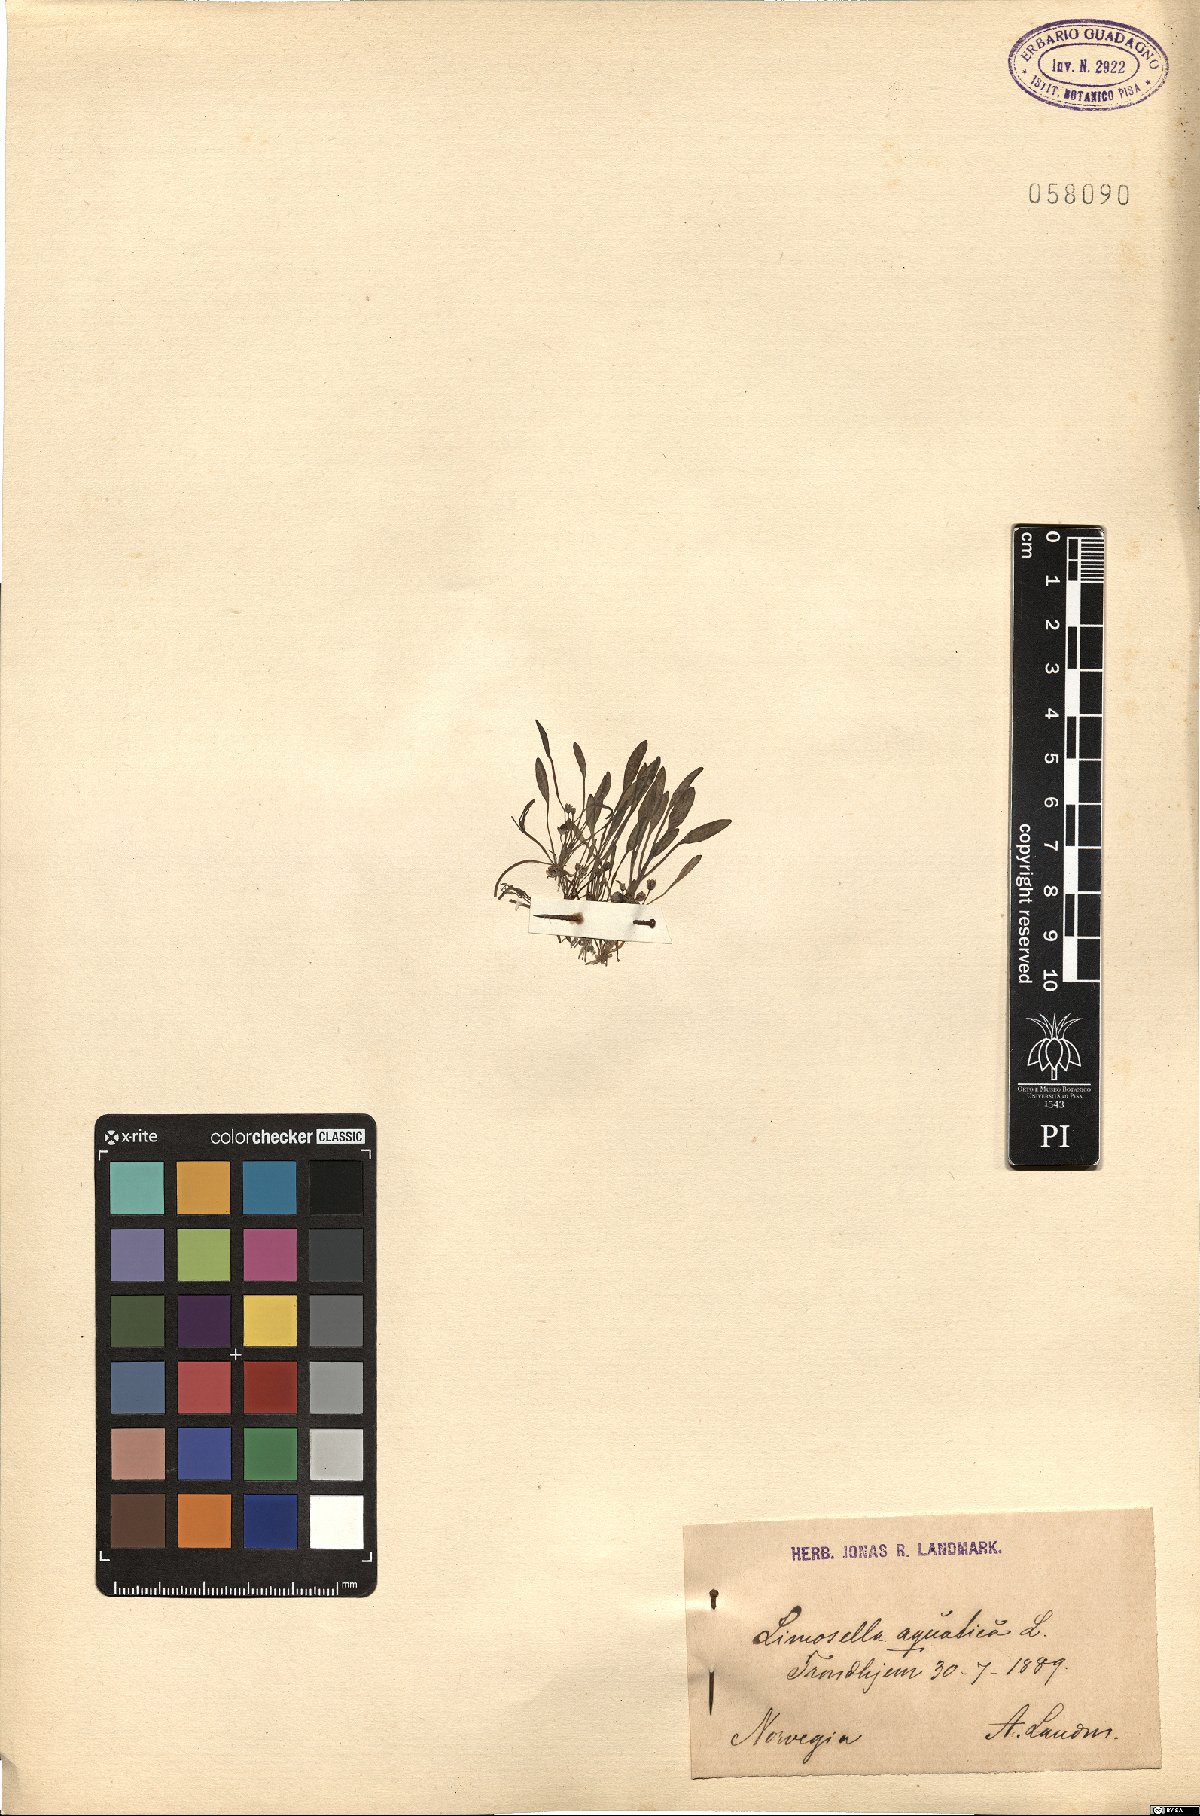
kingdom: Plantae
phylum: Tracheophyta
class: Magnoliopsida
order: Lamiales
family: Scrophulariaceae
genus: Limosella
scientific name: Limosella aquatica
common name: Mudwort
